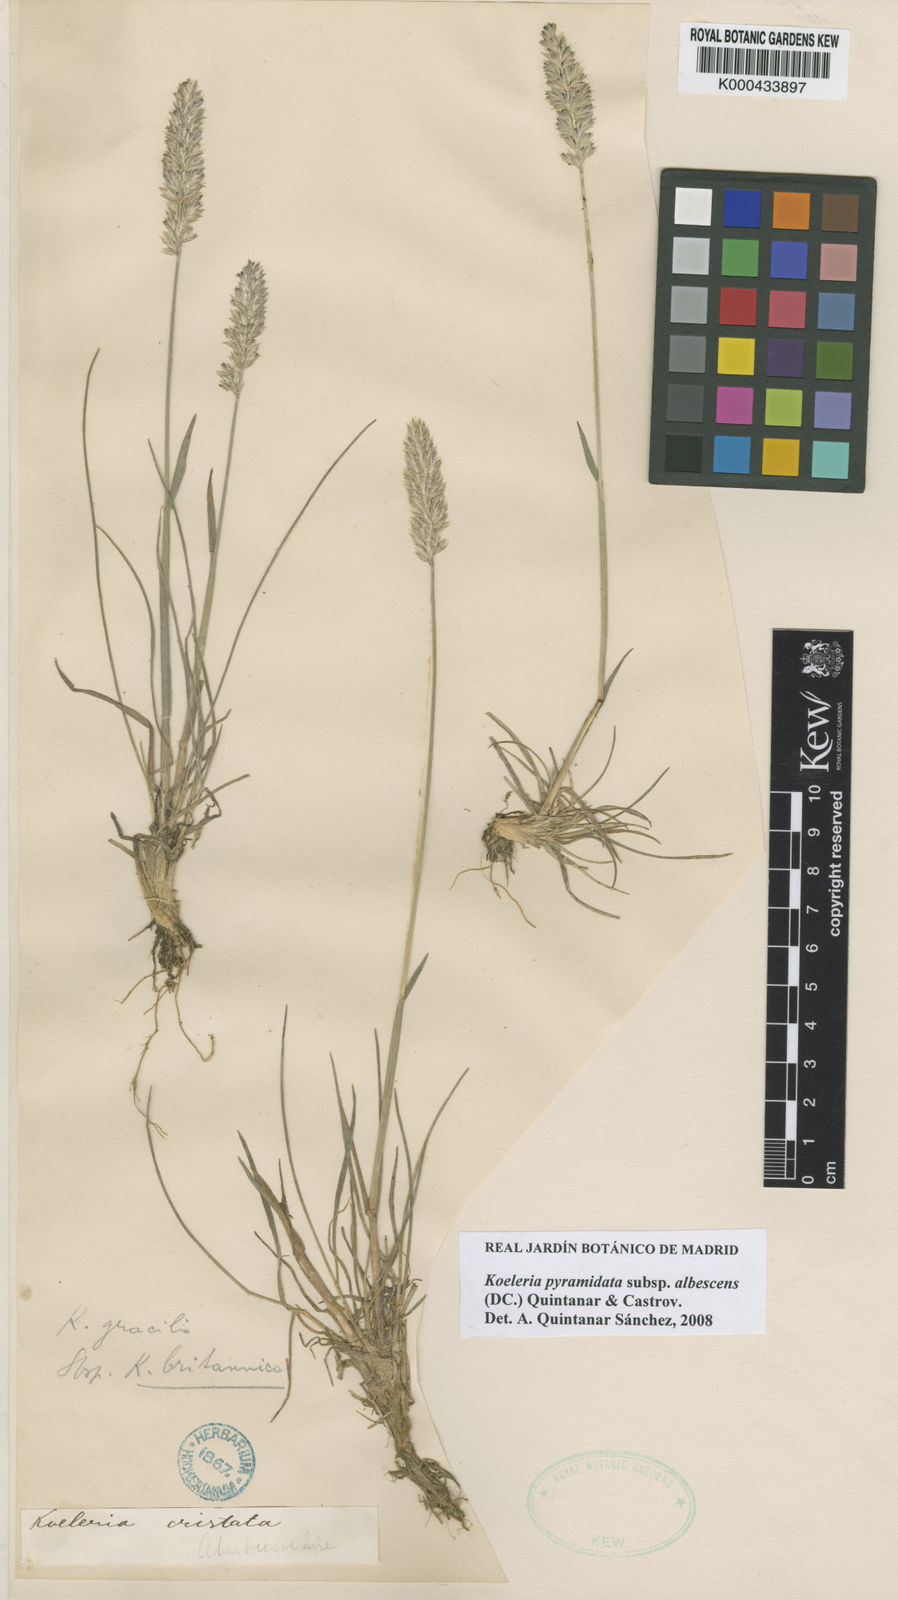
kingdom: Plantae
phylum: Tracheophyta
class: Liliopsida
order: Poales
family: Poaceae
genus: Koeleria
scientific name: Koeleria macrantha
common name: Crested hair-grass
